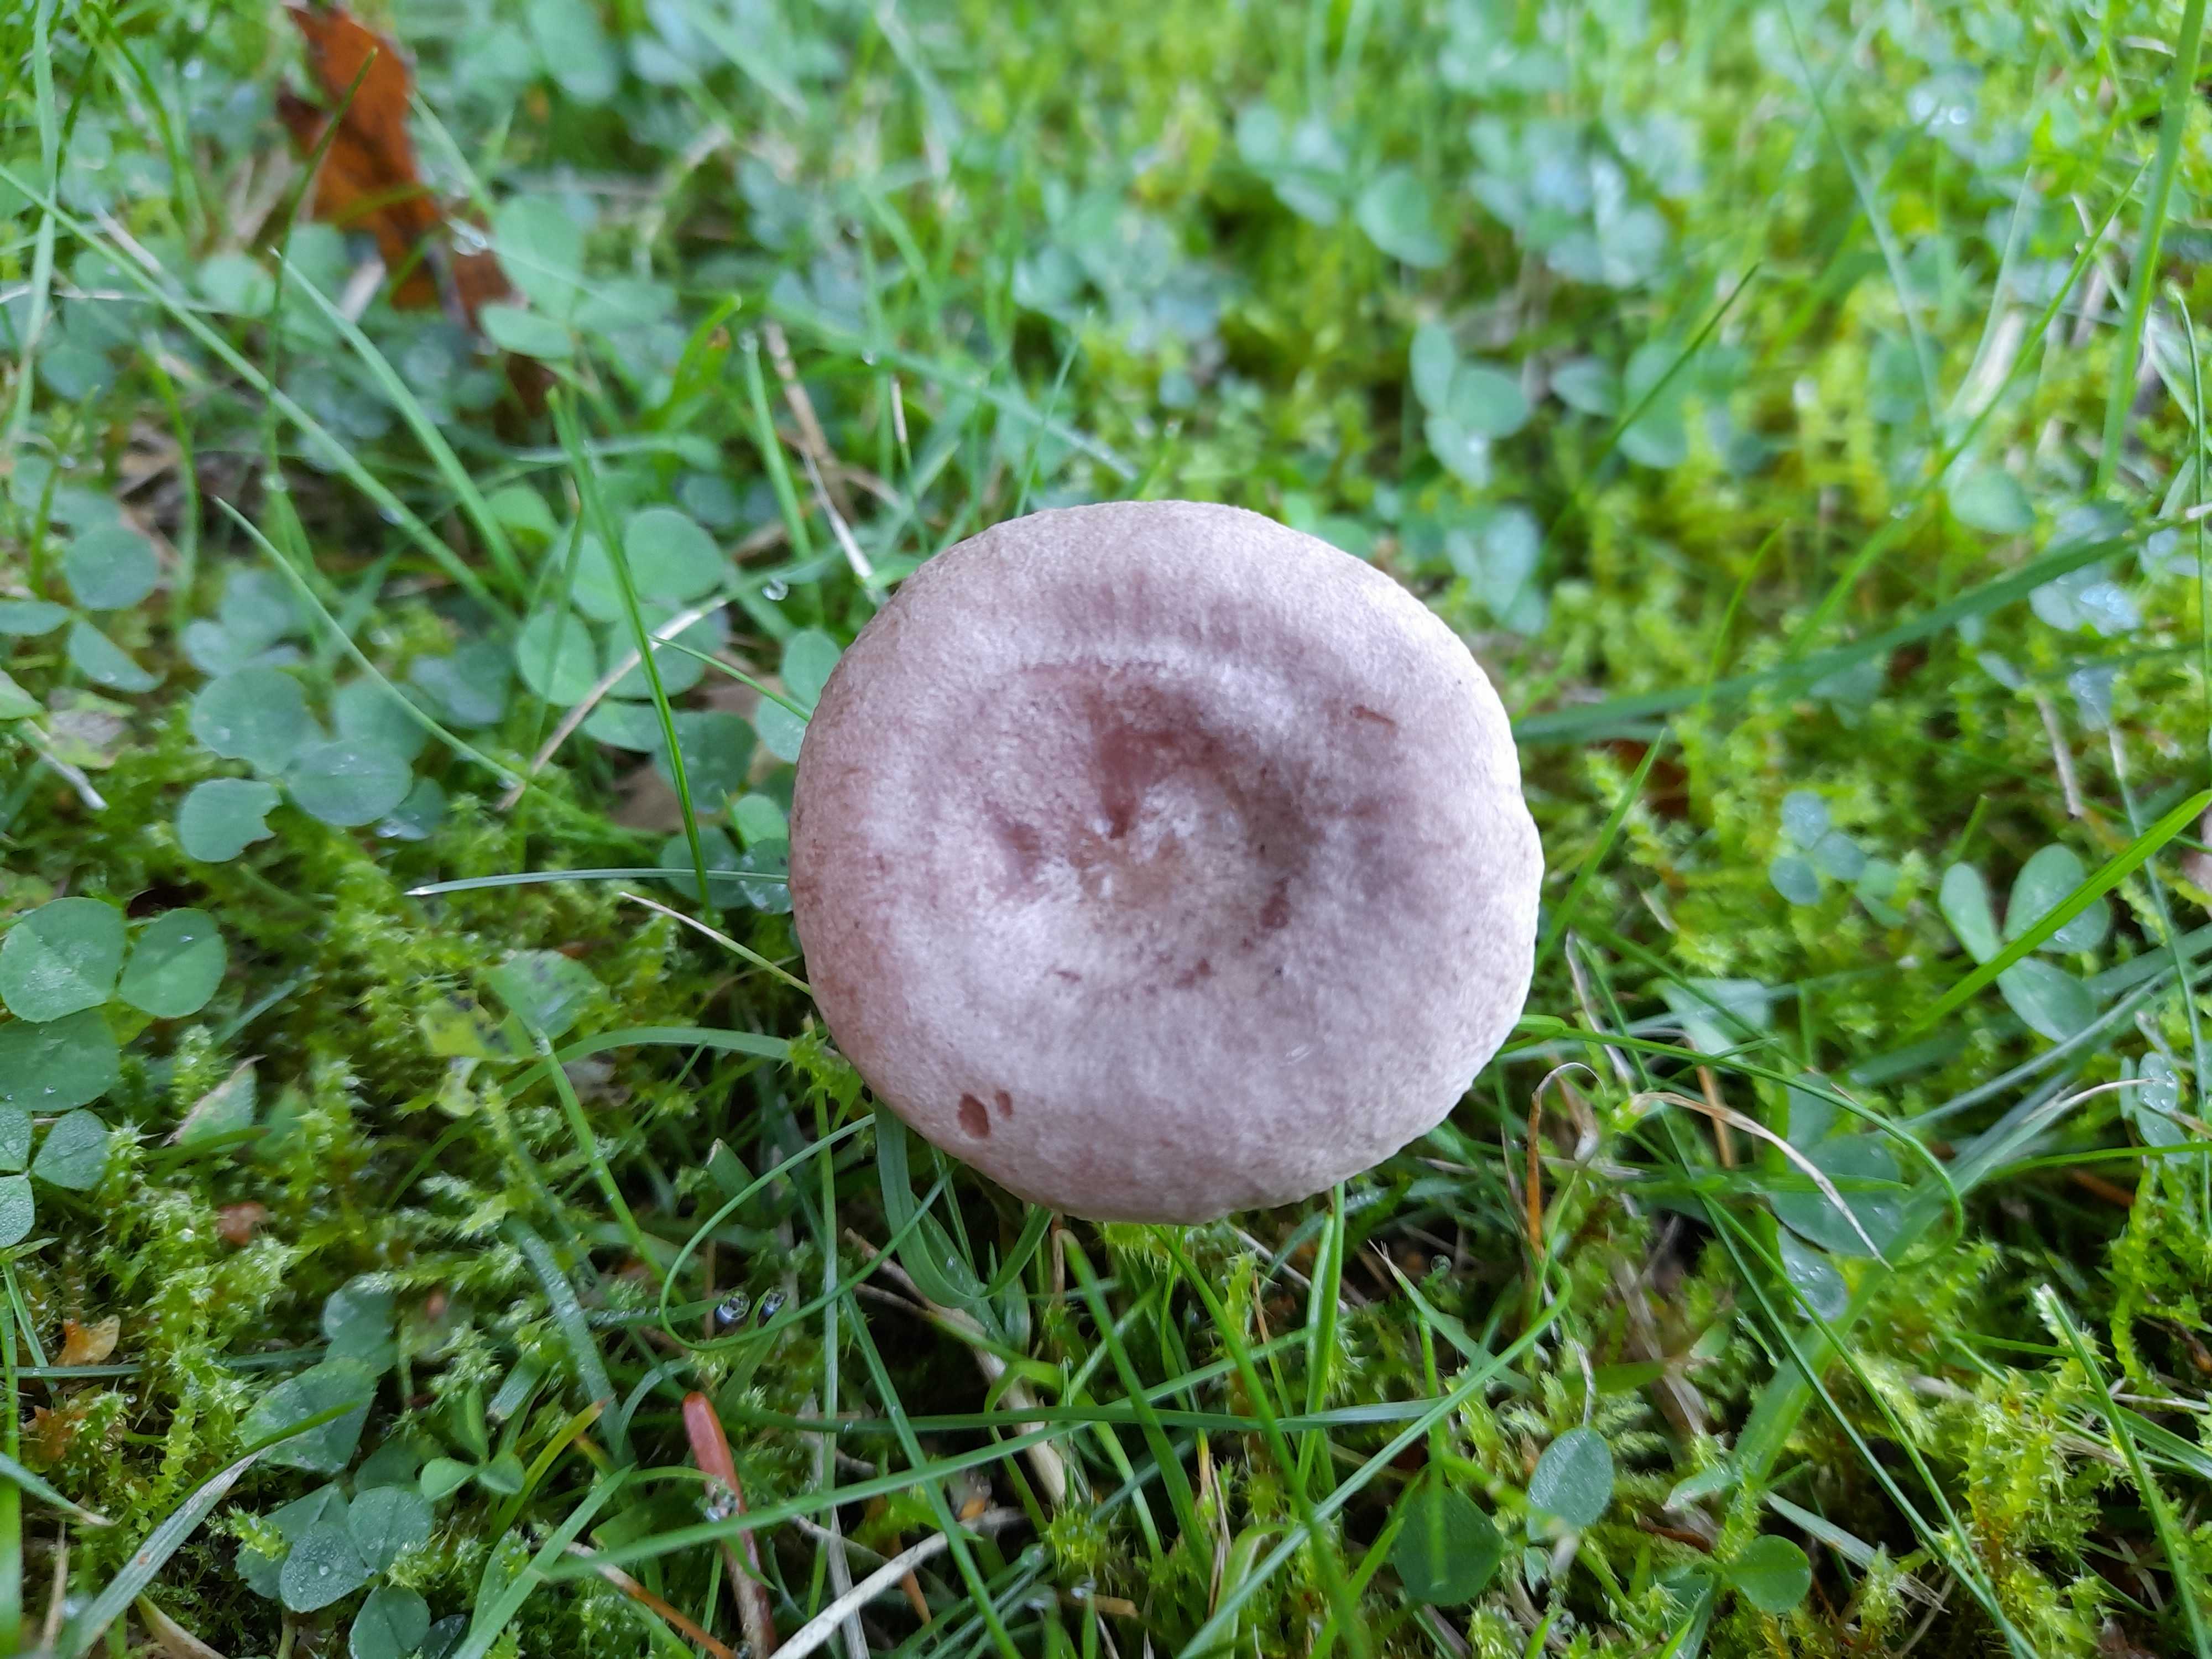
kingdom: Fungi
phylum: Basidiomycota
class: Agaricomycetes
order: Russulales
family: Russulaceae
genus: Lactarius
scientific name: Lactarius glyciosmus
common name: kokos-mælkehat
